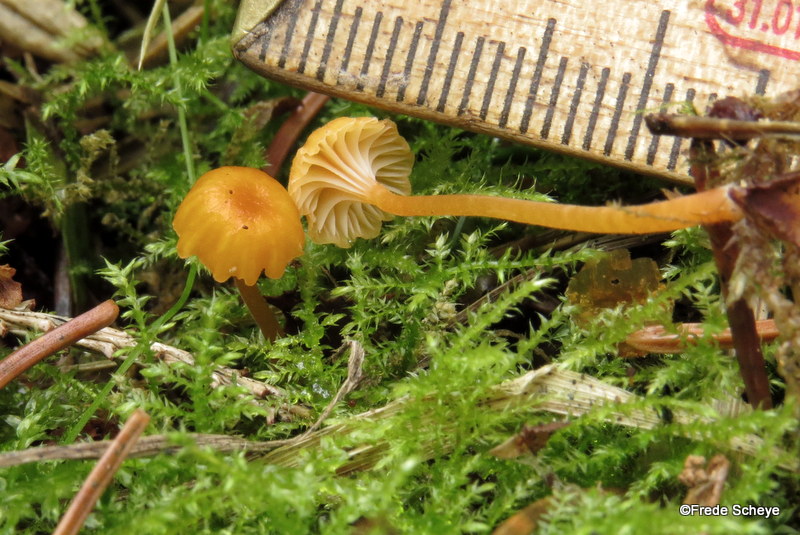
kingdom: Fungi
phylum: Basidiomycota
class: Agaricomycetes
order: Hymenochaetales
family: Rickenellaceae
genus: Rickenella
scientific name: Rickenella fibula
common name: orange mosnavlehat
